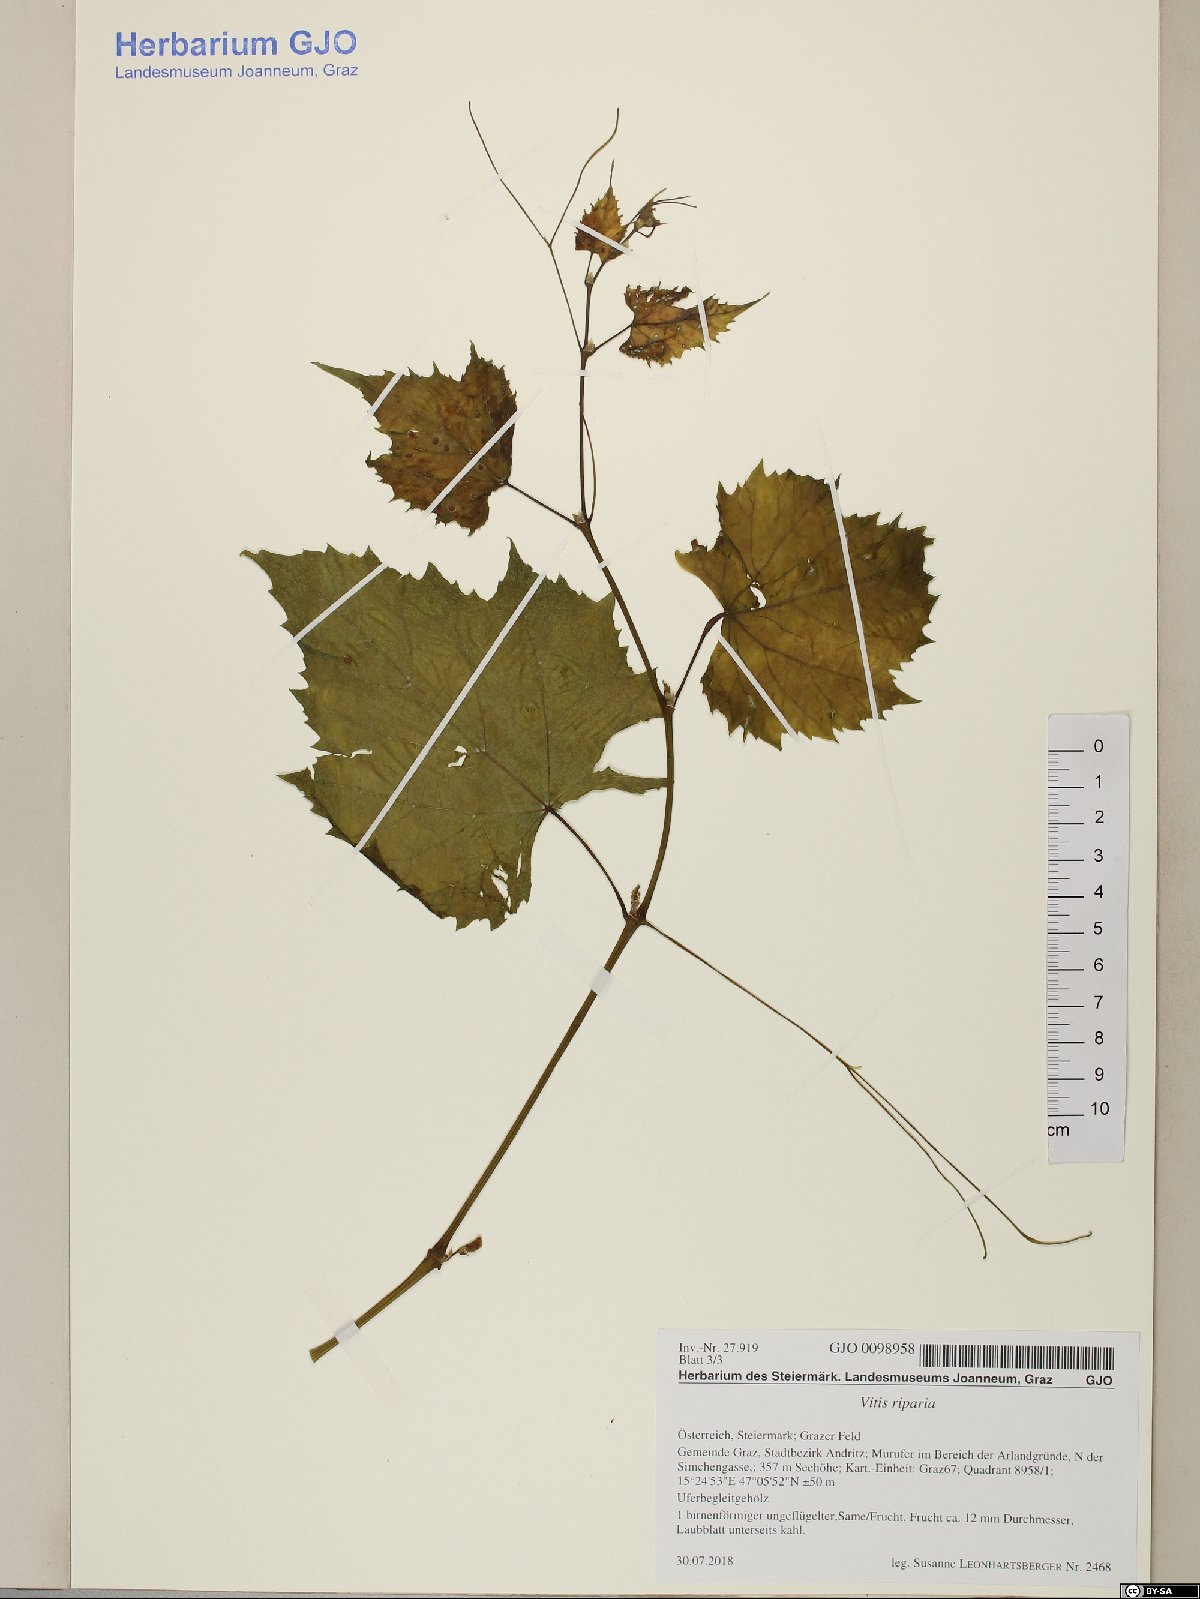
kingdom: Plantae
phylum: Tracheophyta
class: Magnoliopsida
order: Vitales
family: Vitaceae
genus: Vitis
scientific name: Vitis riparia
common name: Frost grape
